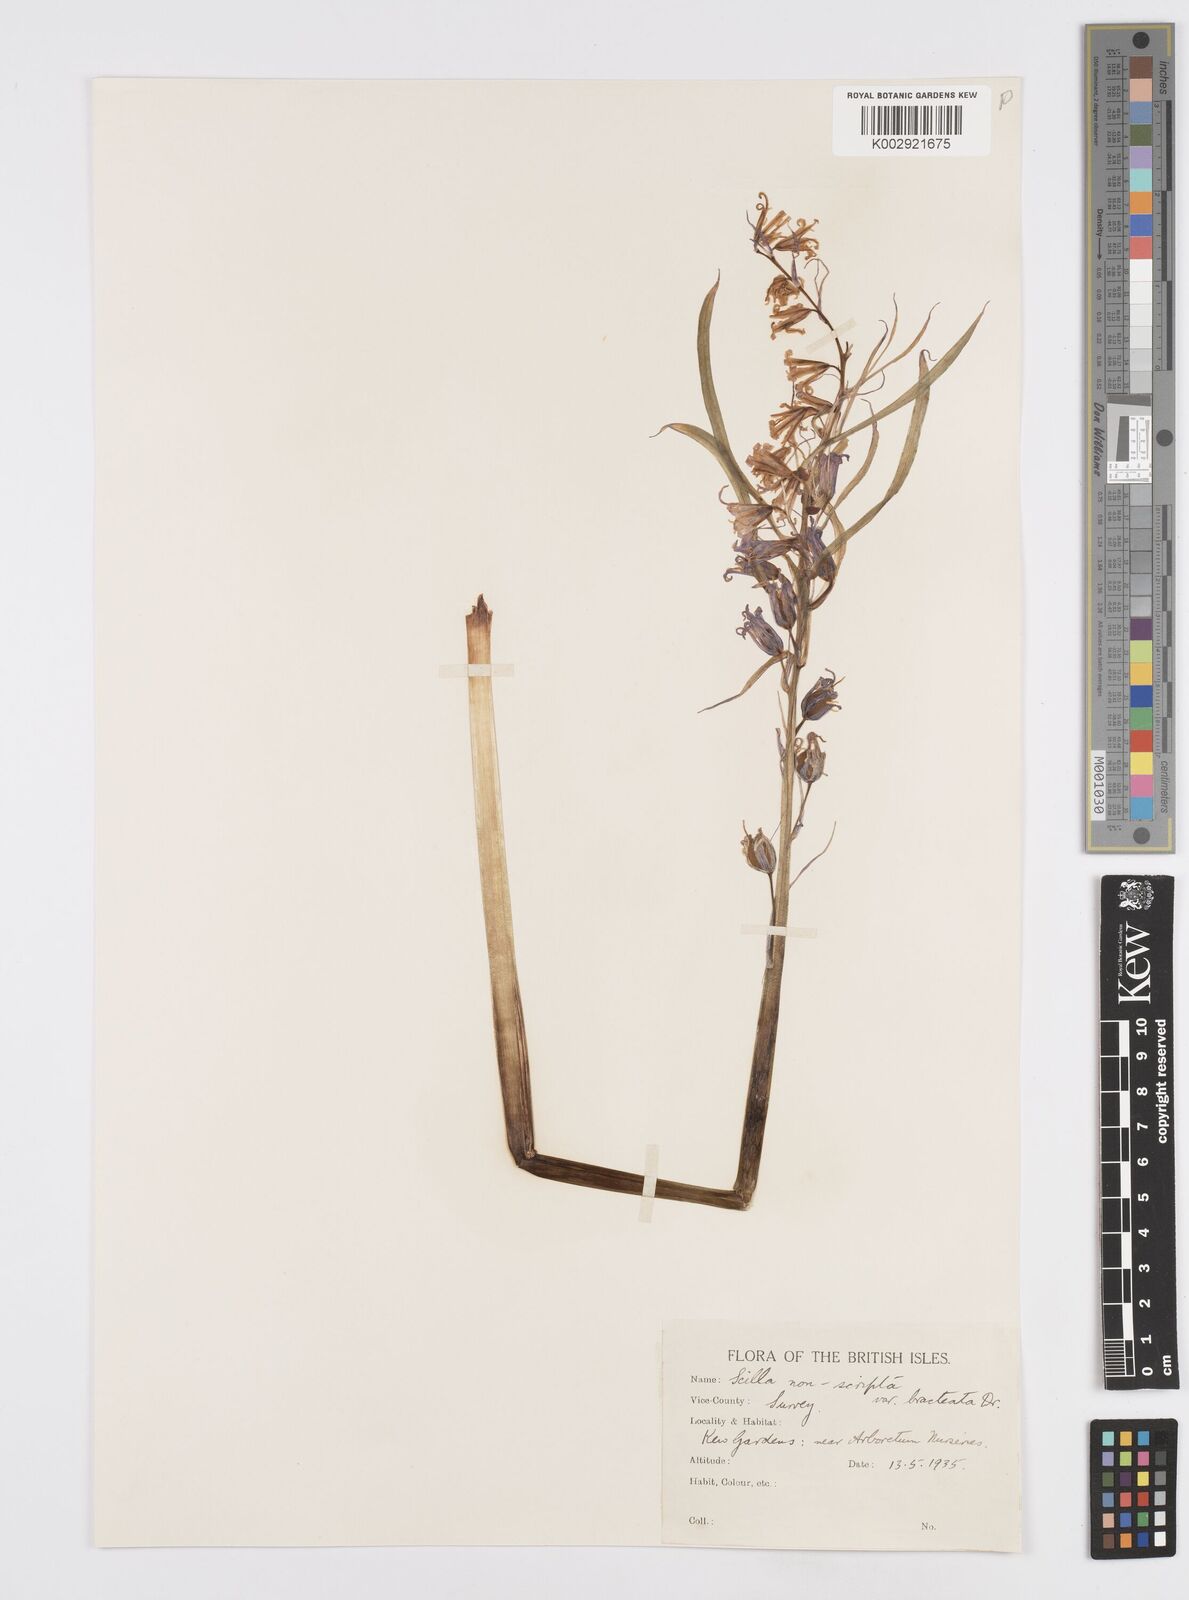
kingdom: Plantae
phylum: Tracheophyta
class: Liliopsida
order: Asparagales
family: Asparagaceae
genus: Hyacinthoides
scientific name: Hyacinthoides
